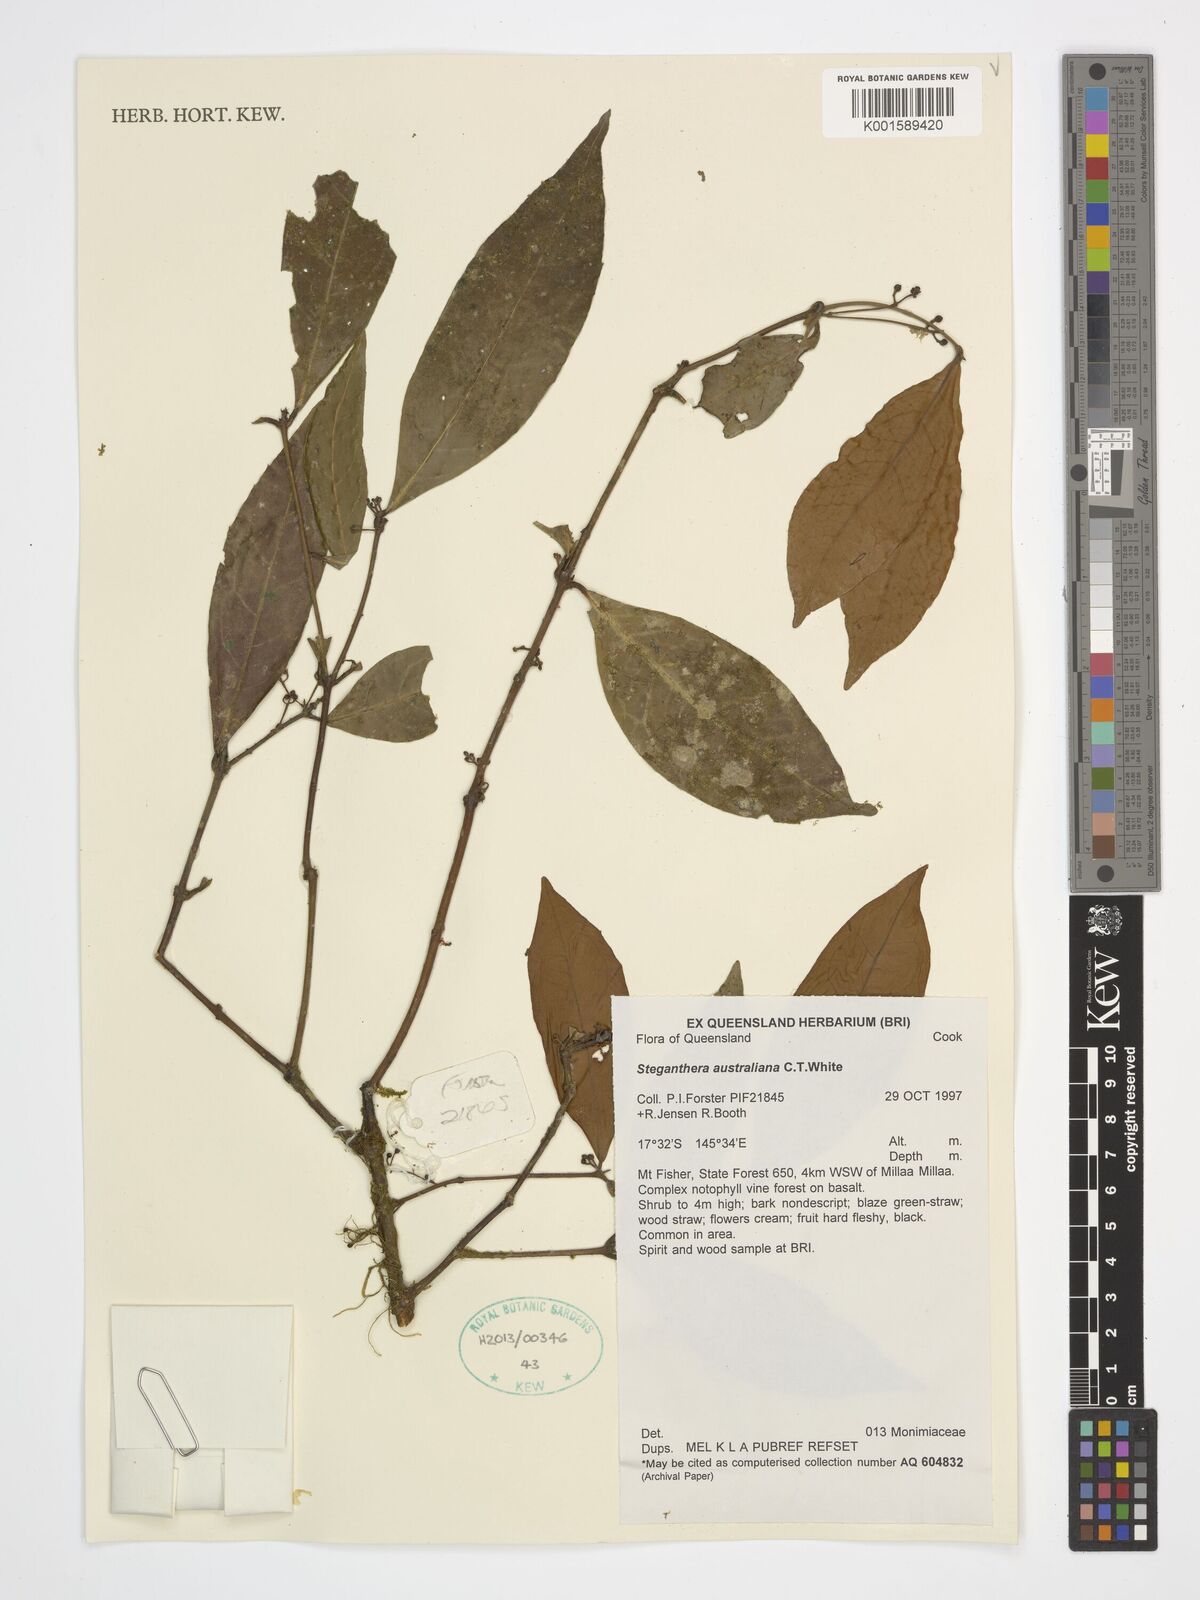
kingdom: Plantae
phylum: Tracheophyta
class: Magnoliopsida
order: Laurales
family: Monimiaceae
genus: Steganthera
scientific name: Steganthera australiana
